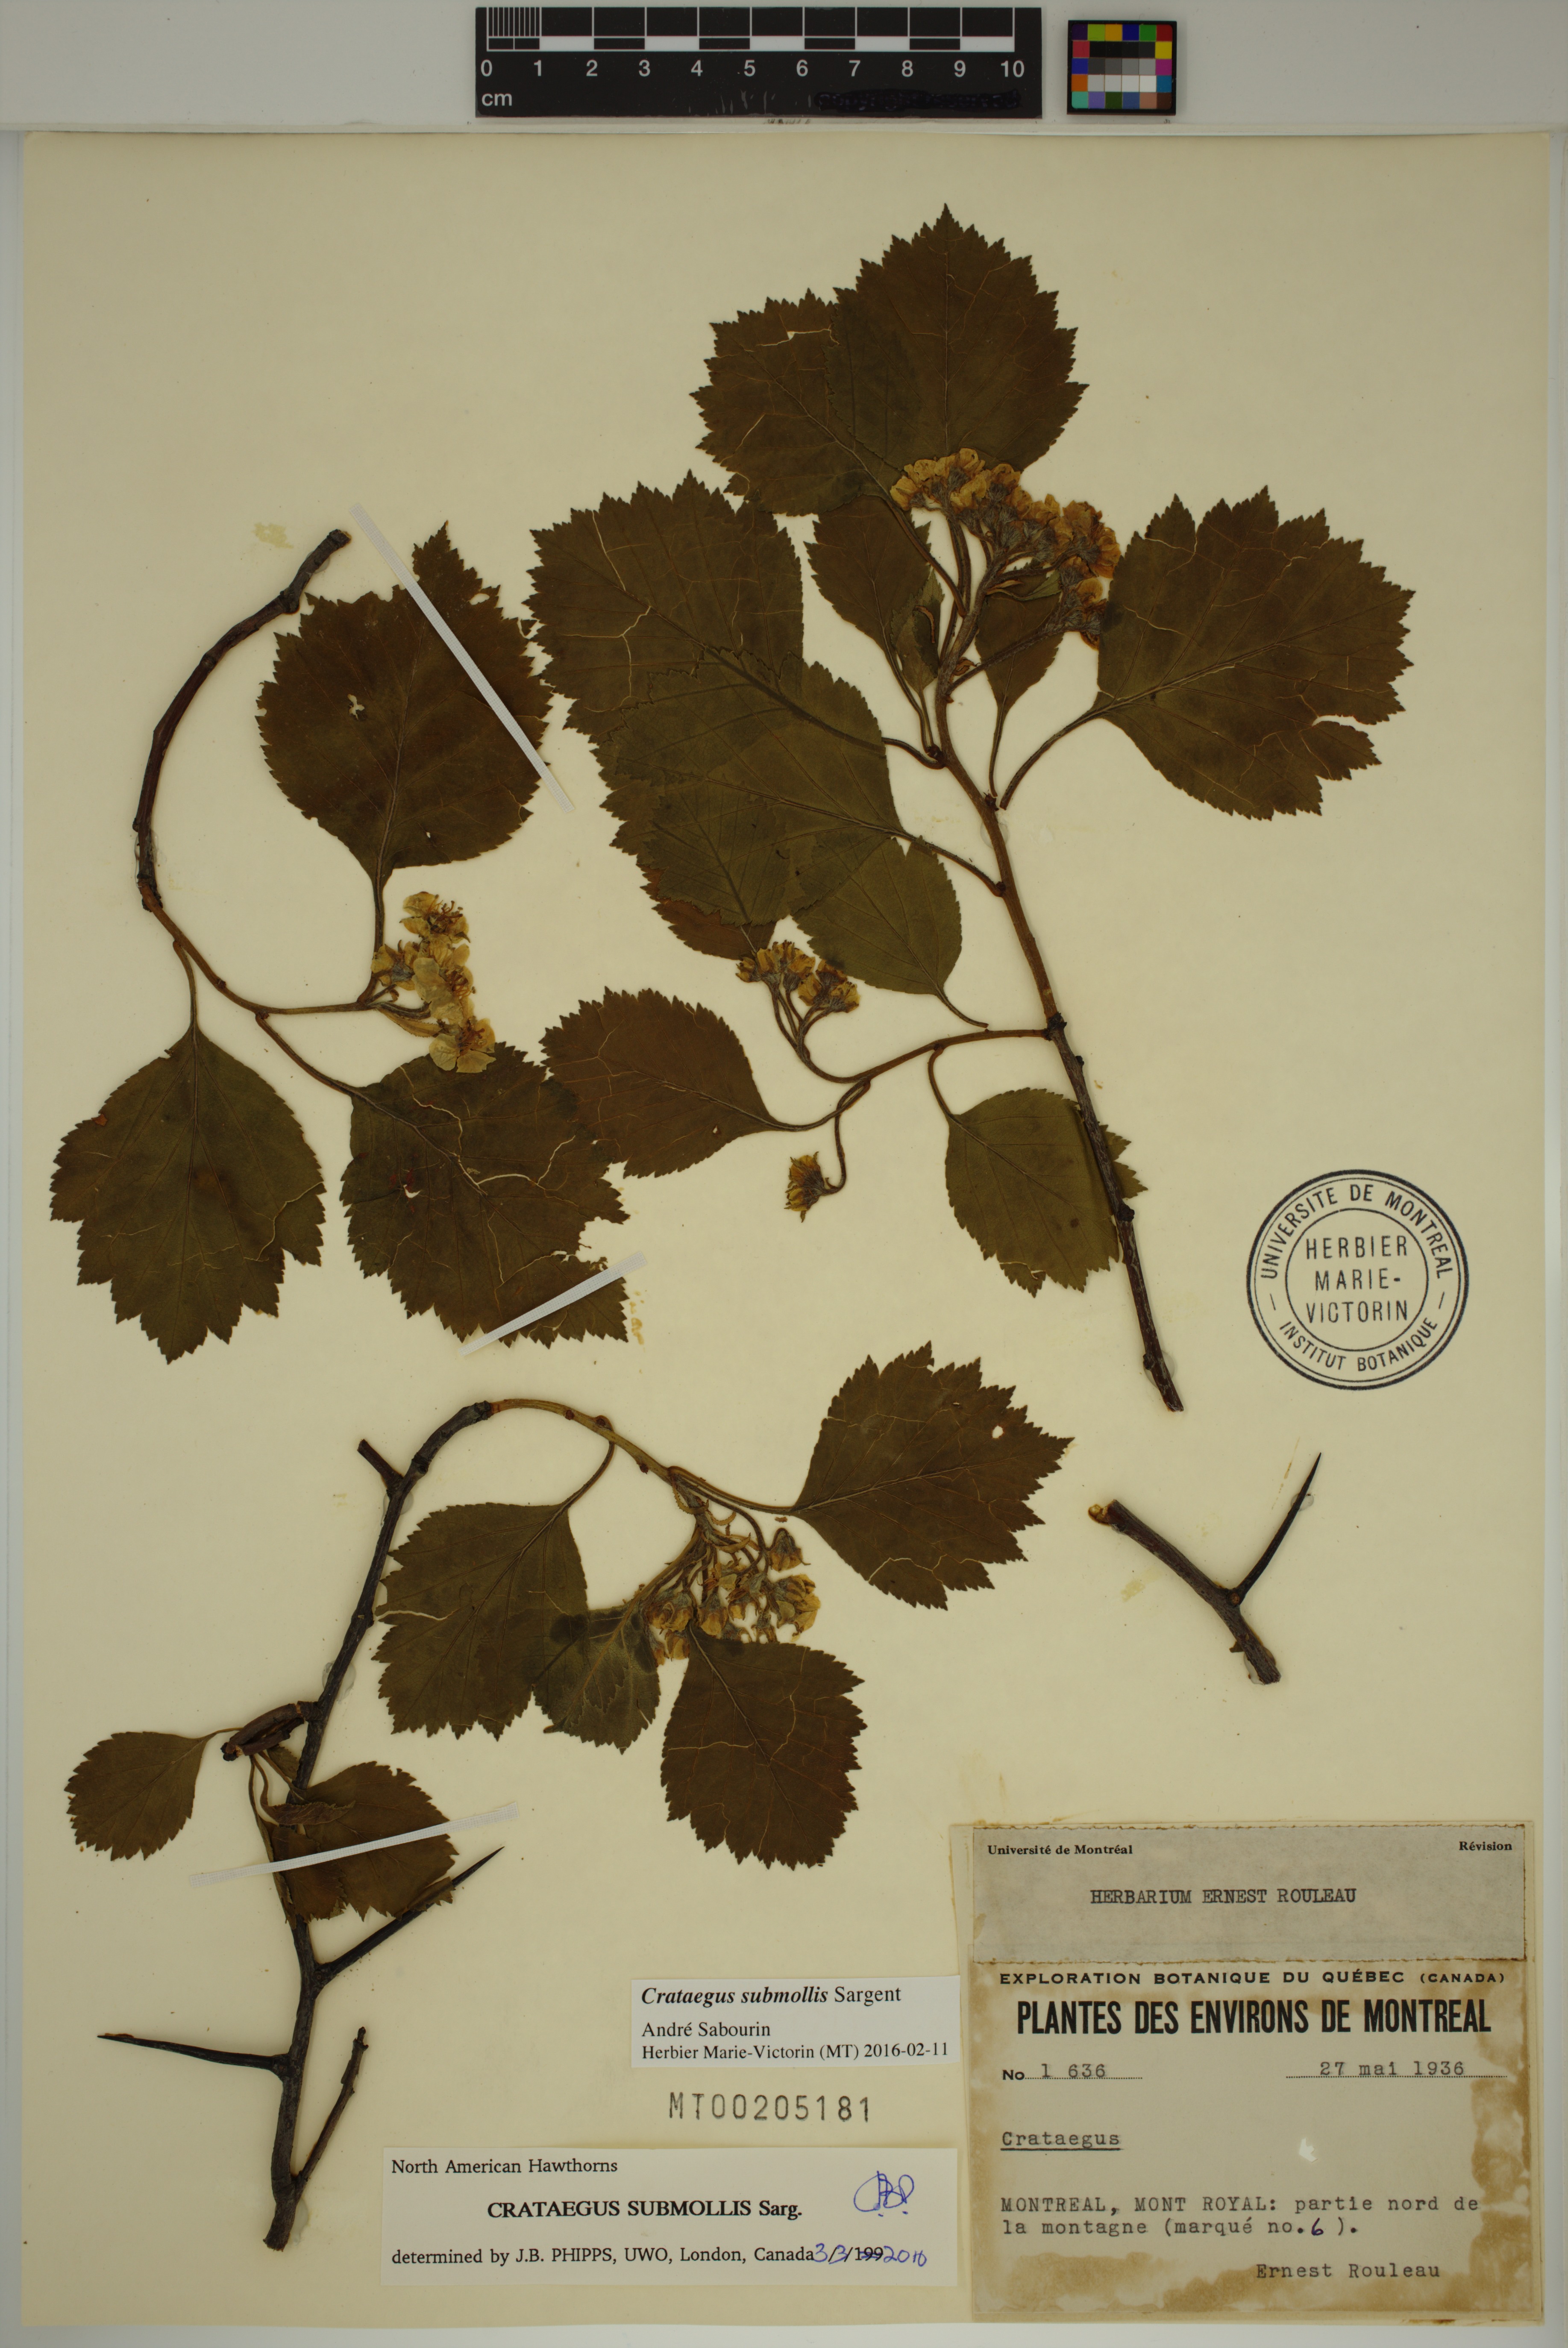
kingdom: Plantae
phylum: Tracheophyta
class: Magnoliopsida
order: Rosales
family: Rosaceae
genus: Crataegus
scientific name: Crataegus submollis
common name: Hairy cockspurthorn
